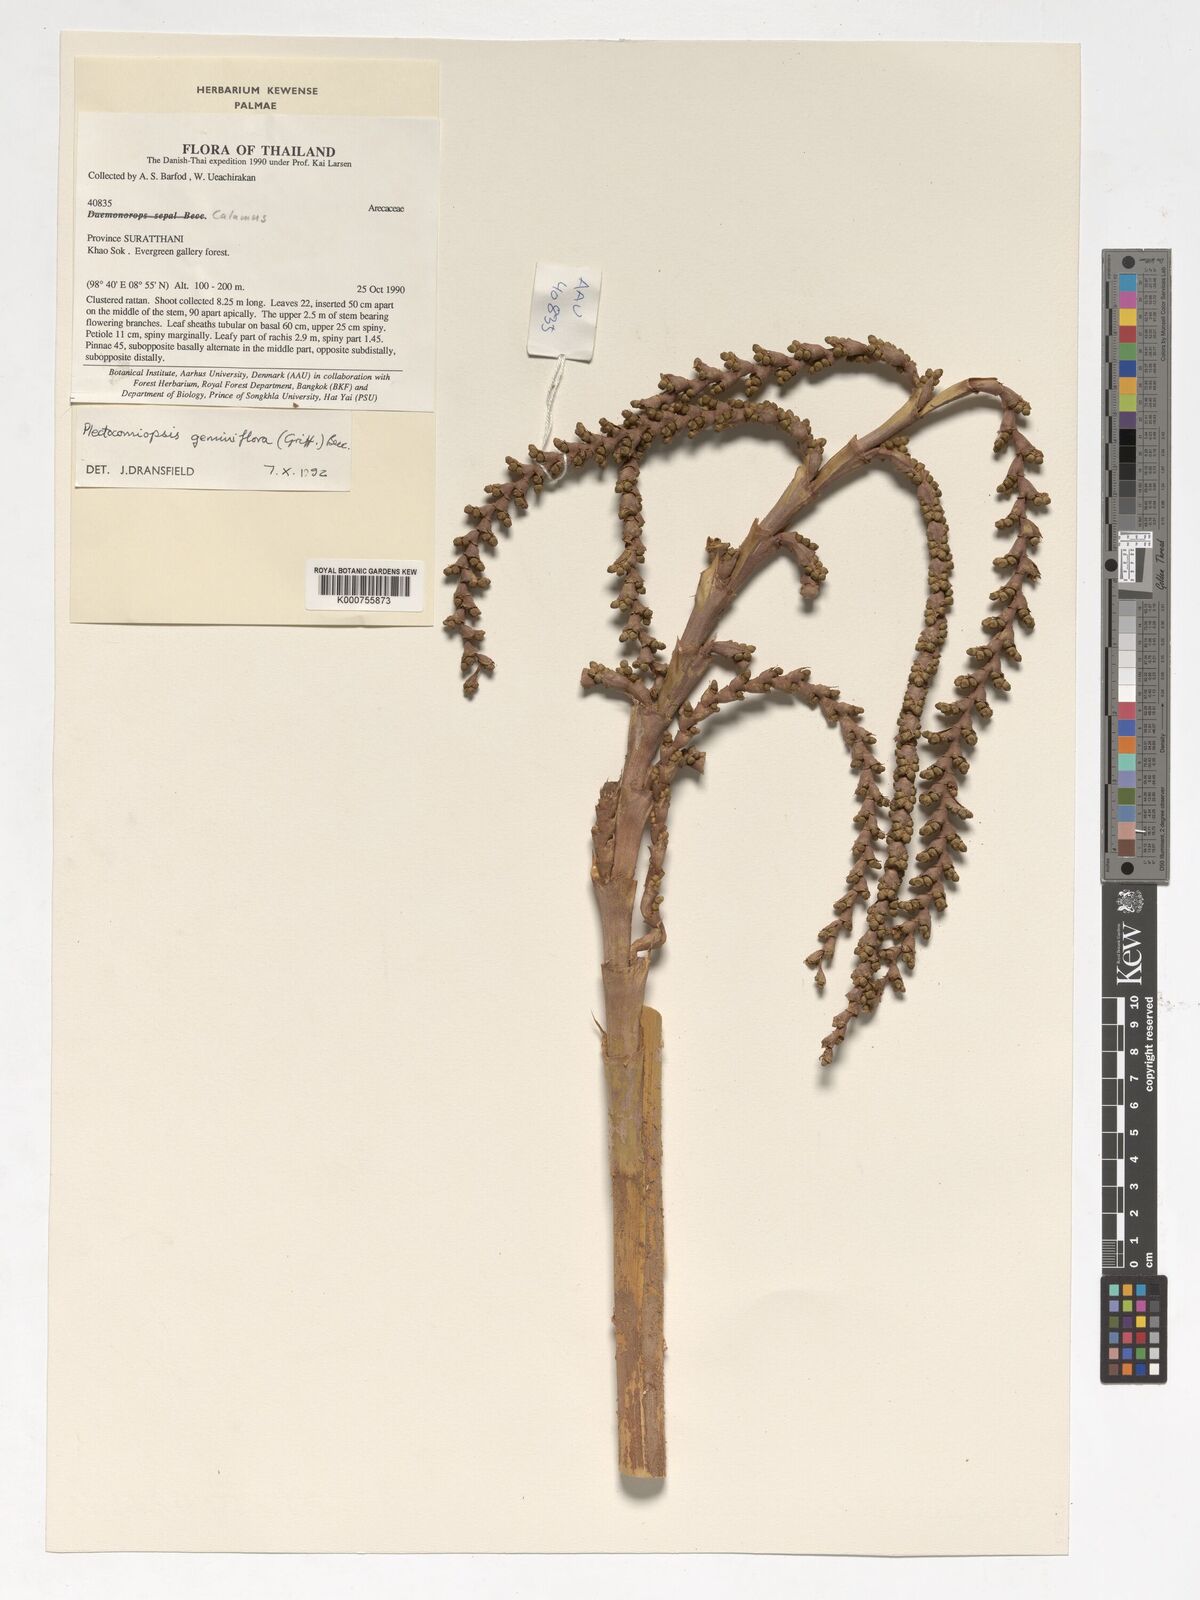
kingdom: Plantae
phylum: Tracheophyta
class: Liliopsida
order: Arecales
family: Arecaceae
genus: Plectocomiopsis
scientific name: Plectocomiopsis geminiflora
